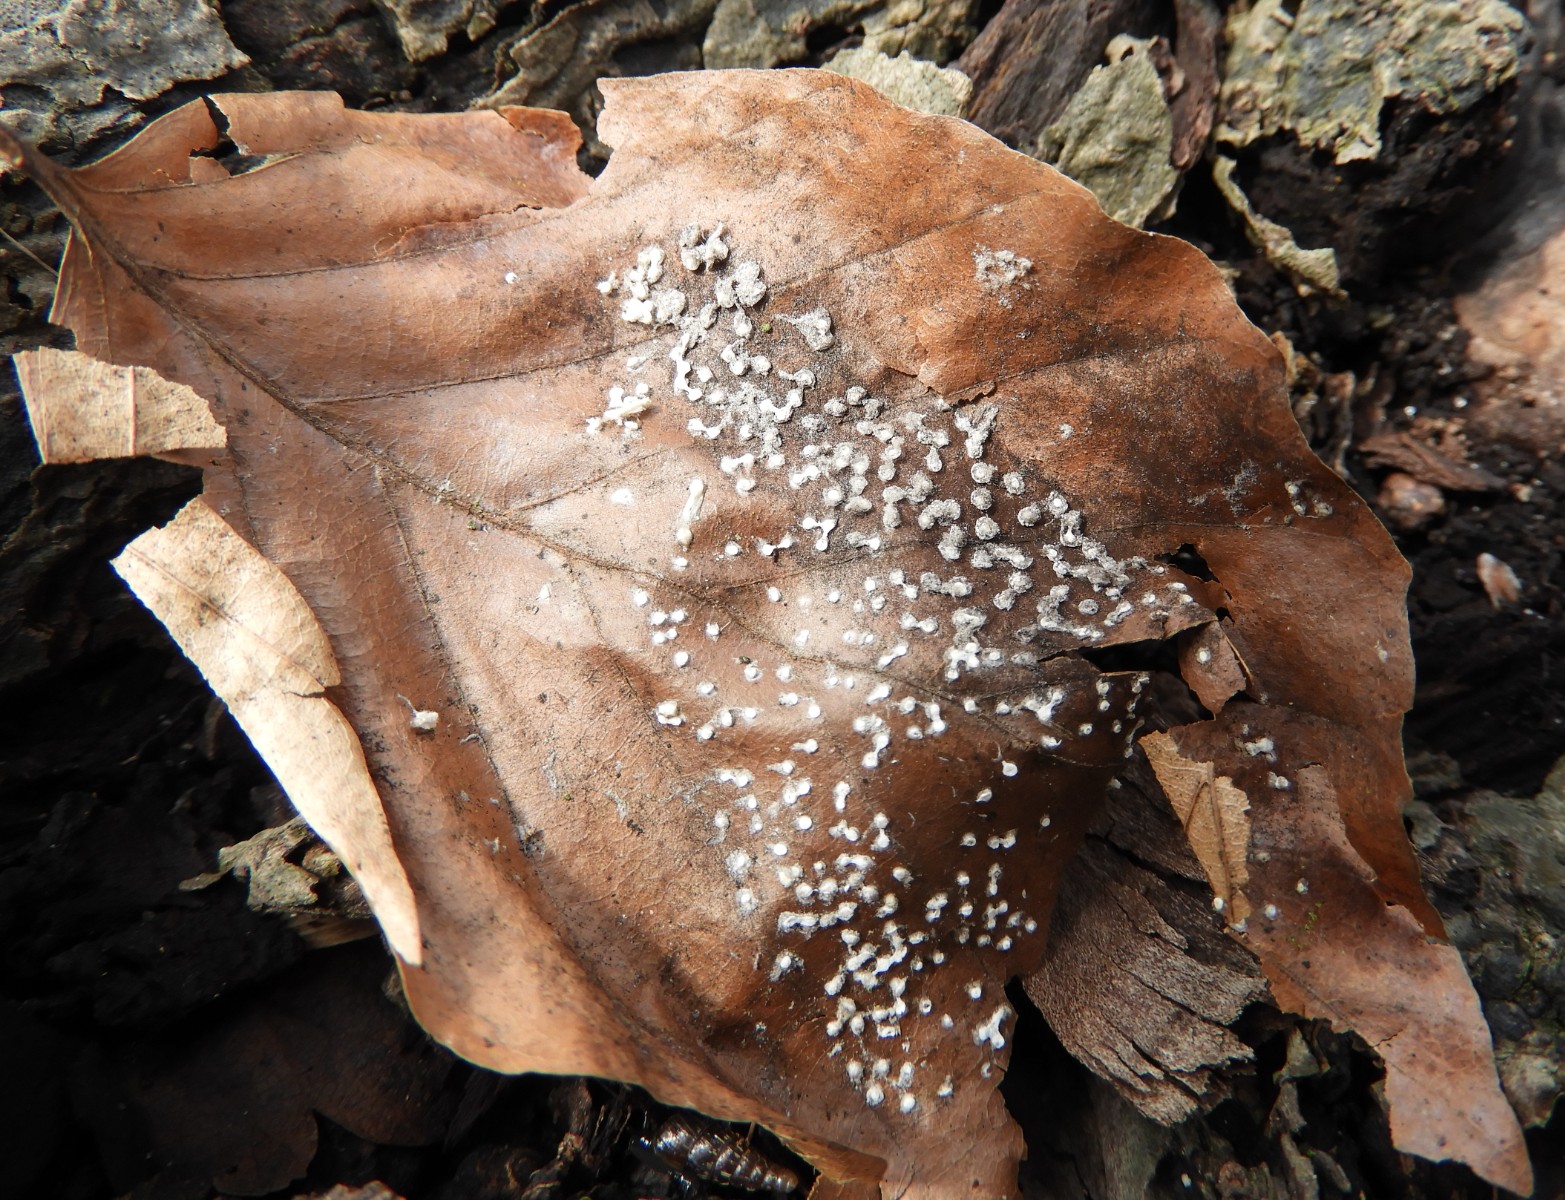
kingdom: Protozoa
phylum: Mycetozoa
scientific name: Mycetozoa
